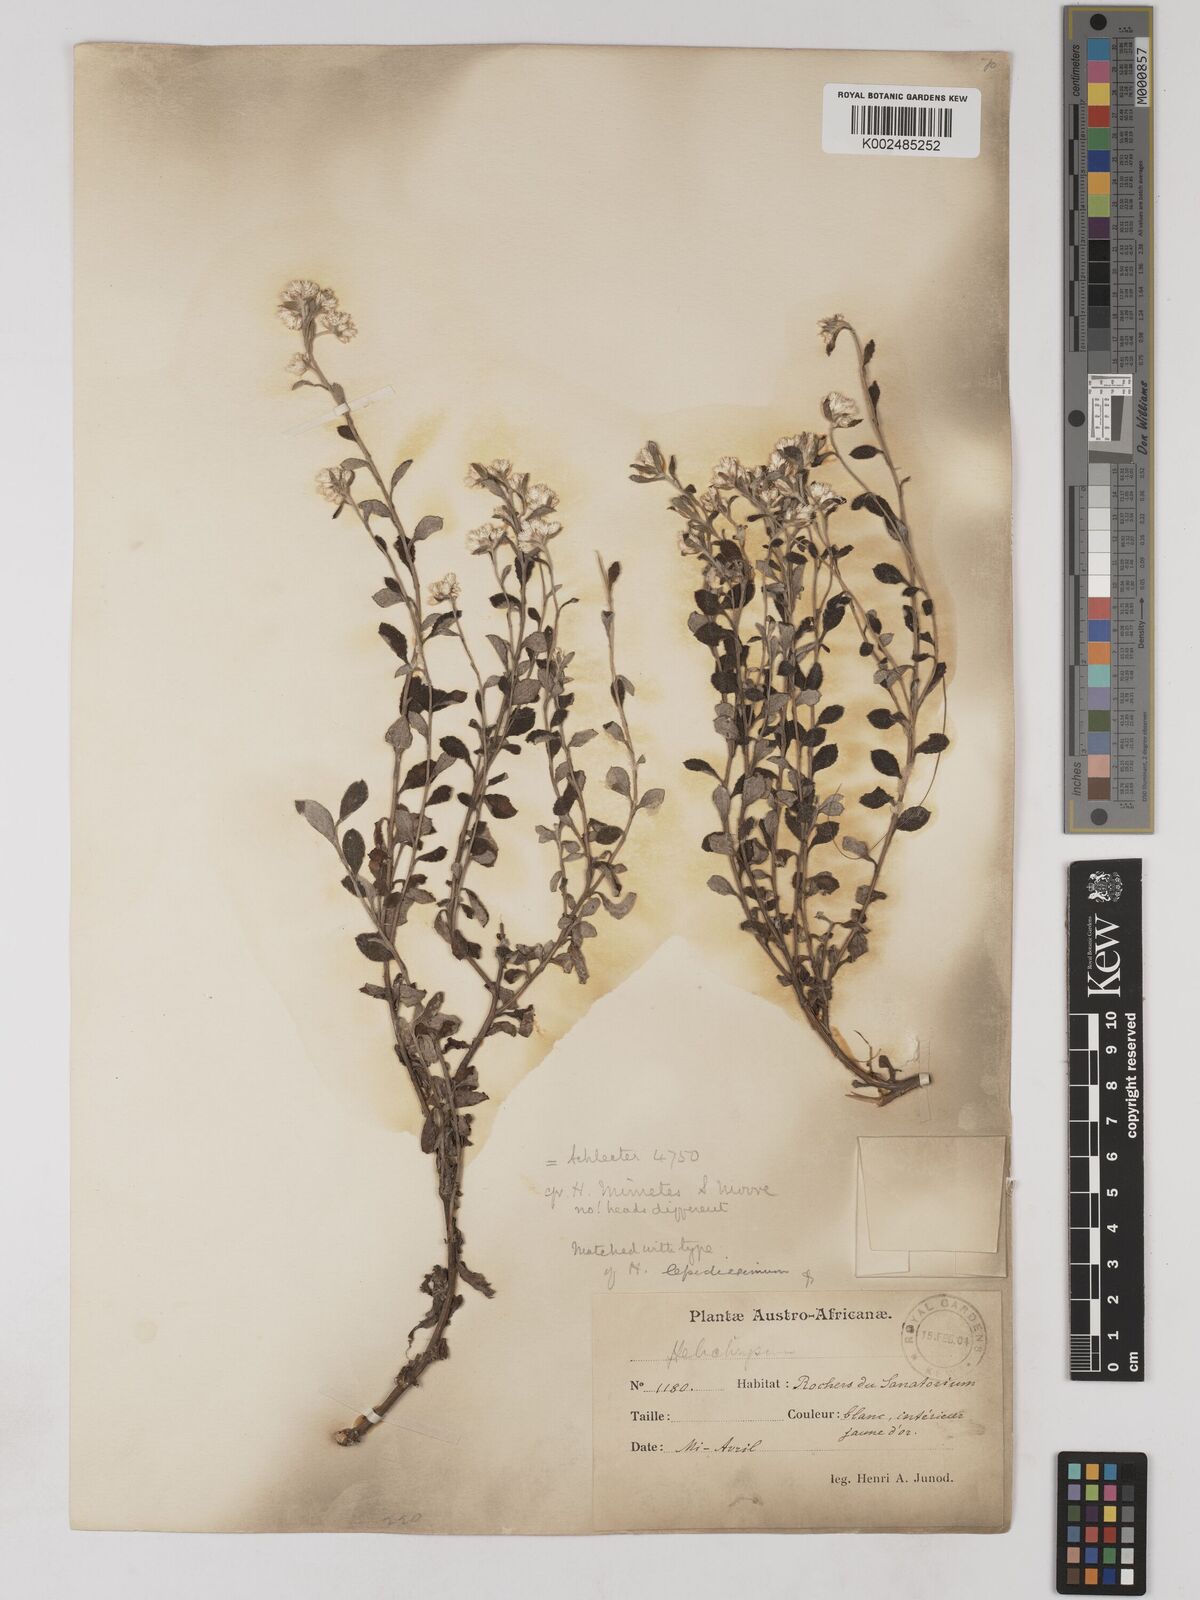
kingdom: Plantae
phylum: Tracheophyta
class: Magnoliopsida
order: Asterales
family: Asteraceae
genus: Helichrysum
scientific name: Helichrysum lepidissimum
